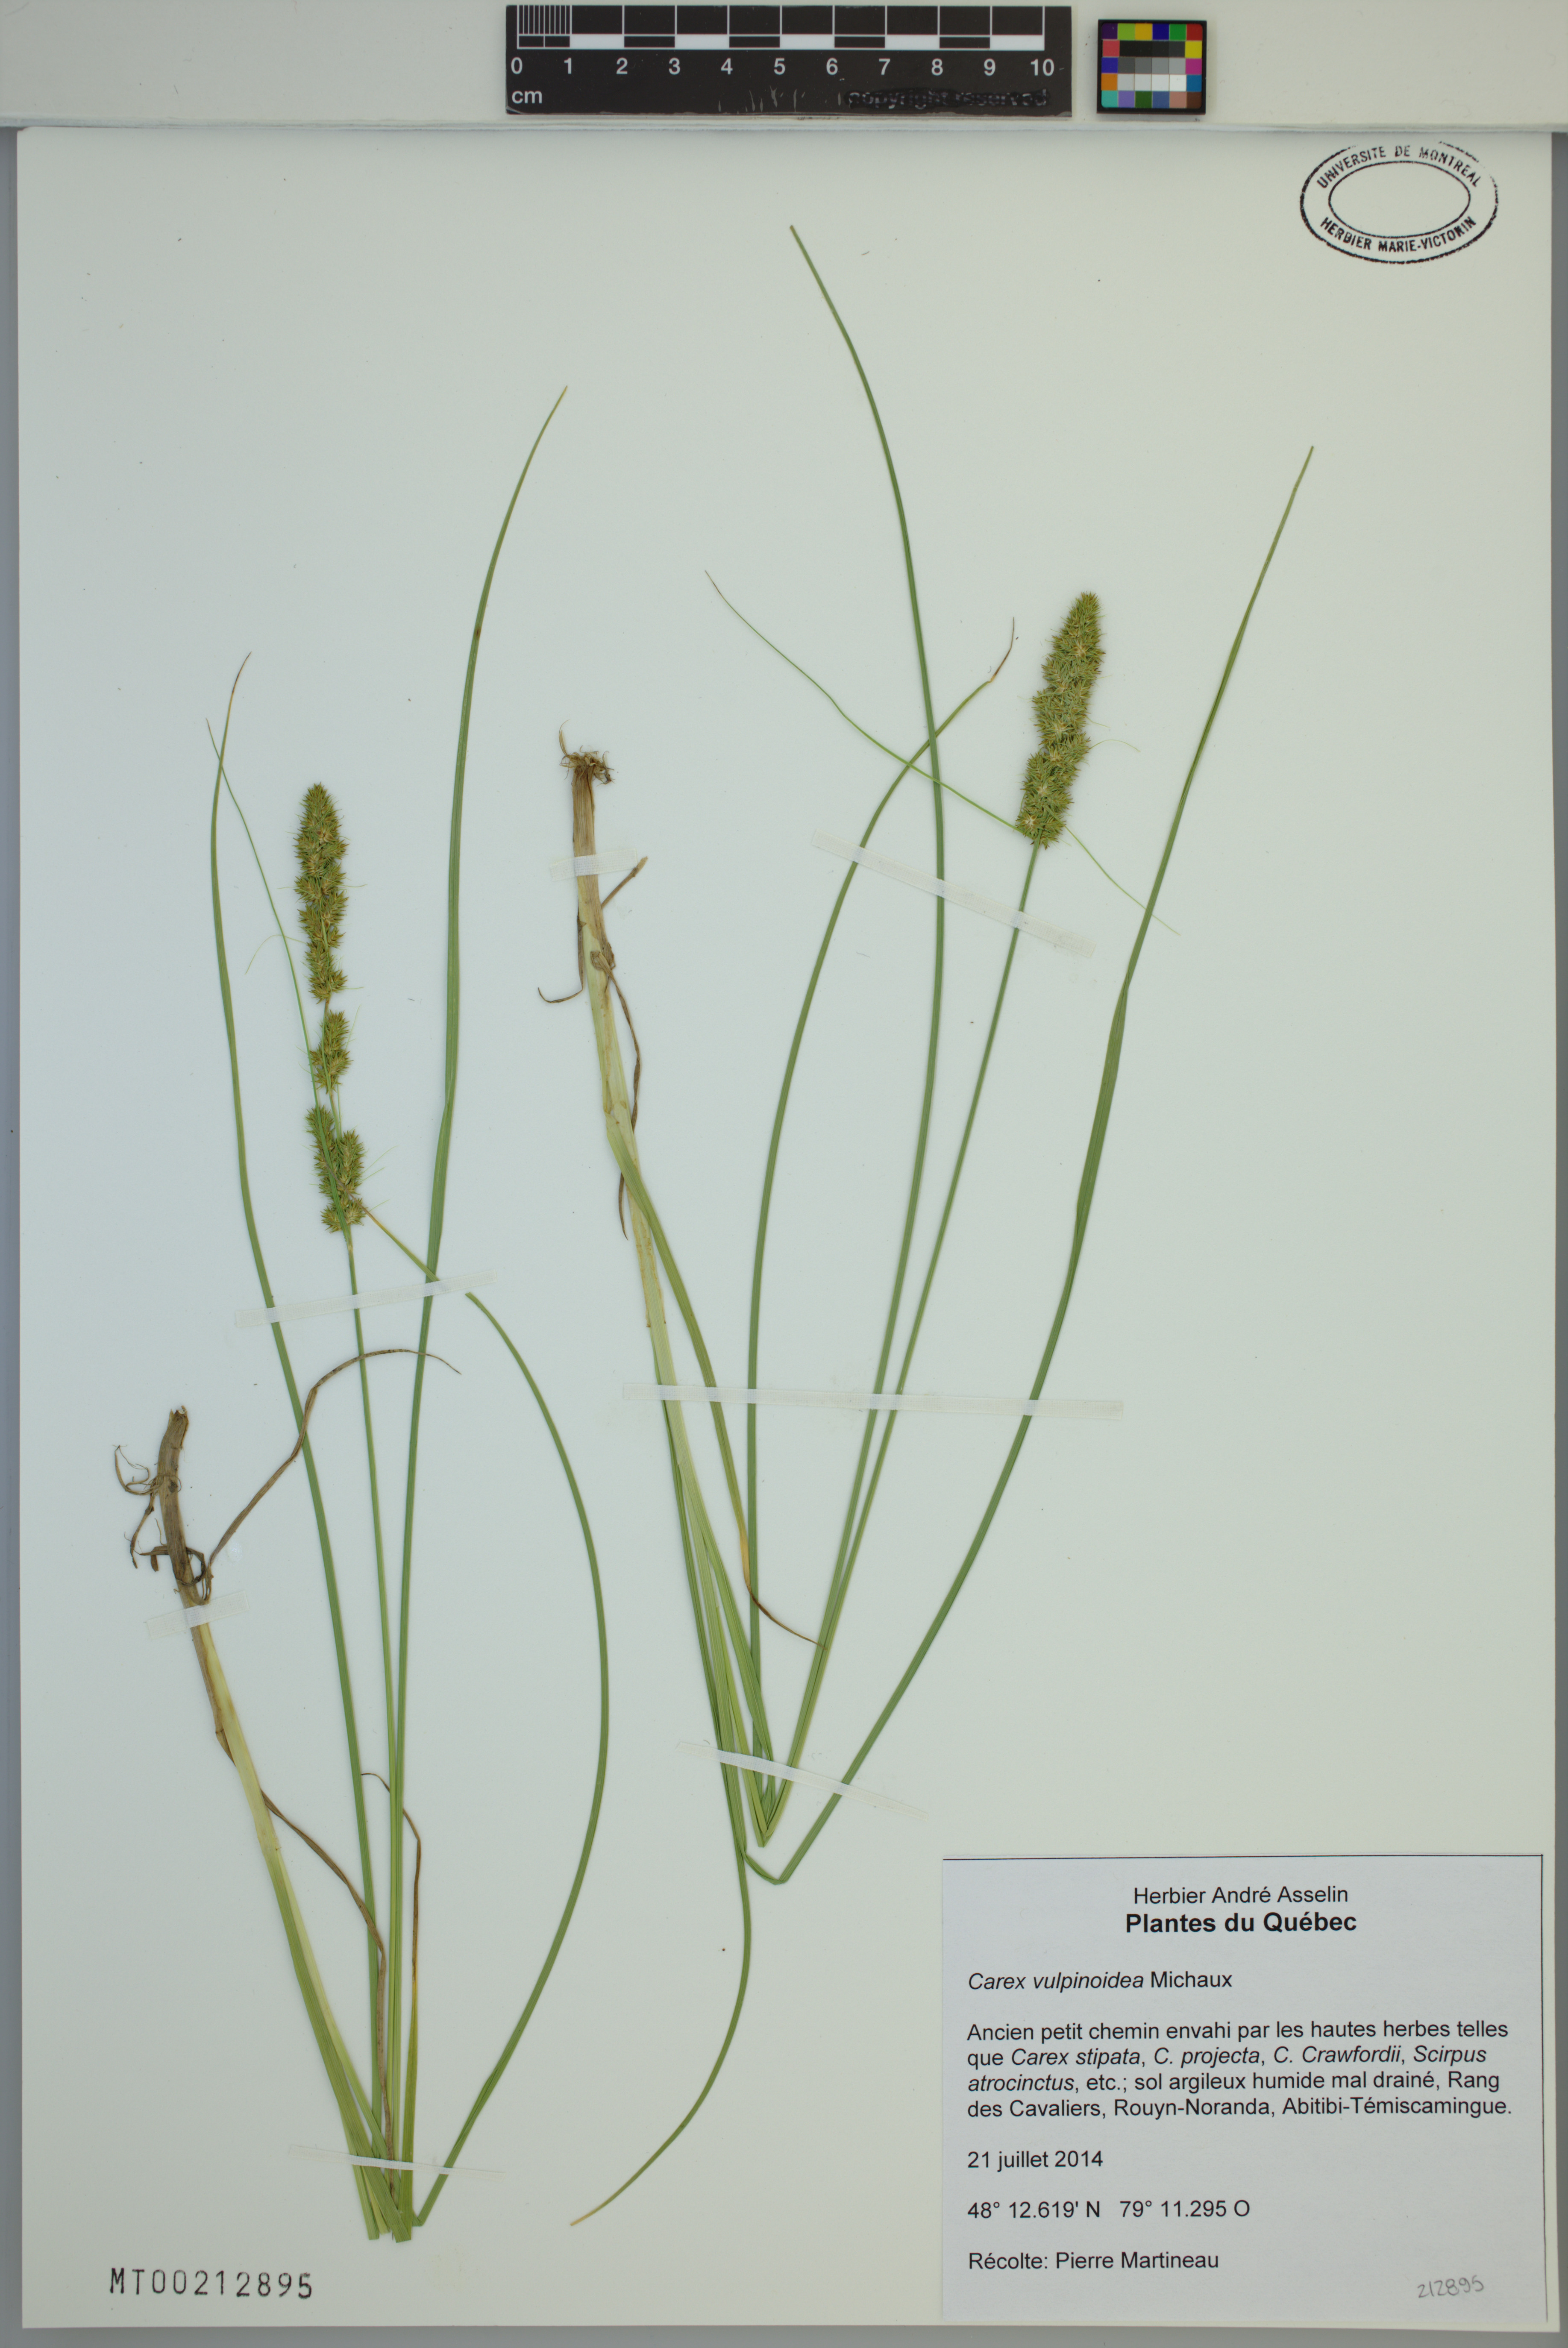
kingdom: Plantae
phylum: Tracheophyta
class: Liliopsida
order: Poales
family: Cyperaceae
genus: Carex
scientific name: Carex vulpinoidea
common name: American fox-sedge
